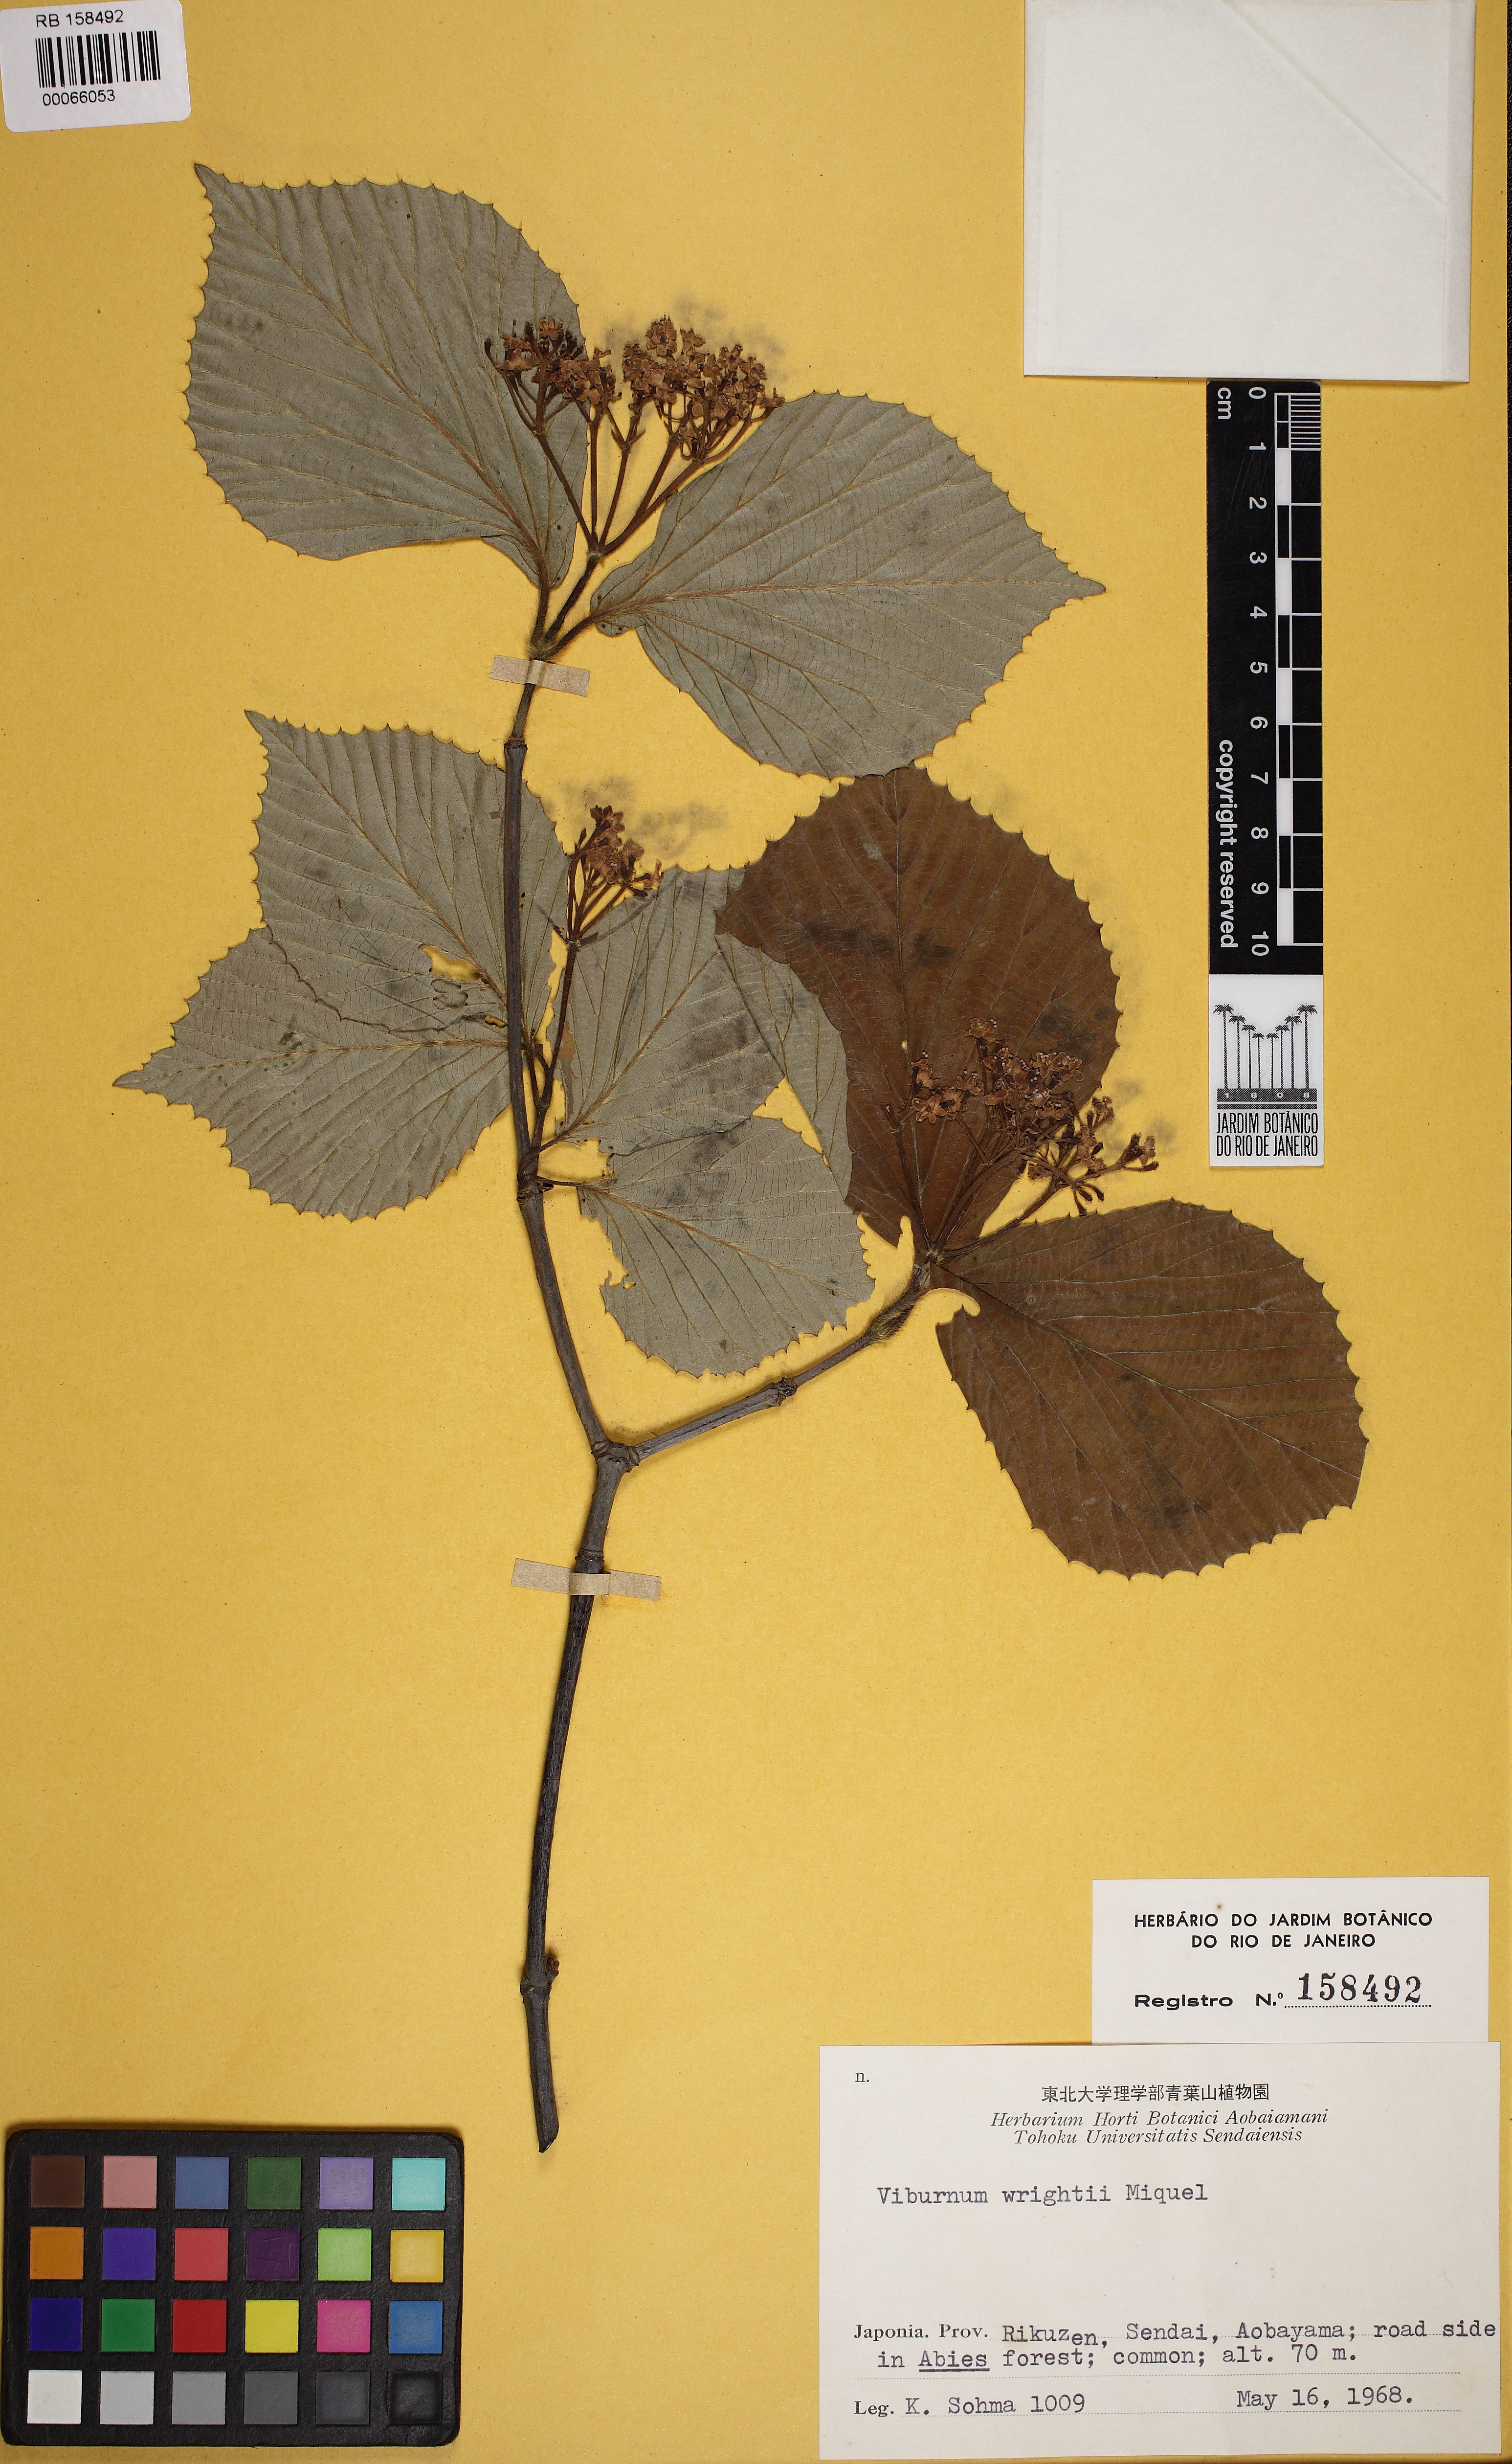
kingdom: Plantae
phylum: Tracheophyta
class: Magnoliopsida
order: Dipsacales
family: Viburnaceae
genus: Viburnum
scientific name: Viburnum wrightii
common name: Wright's viburnum
